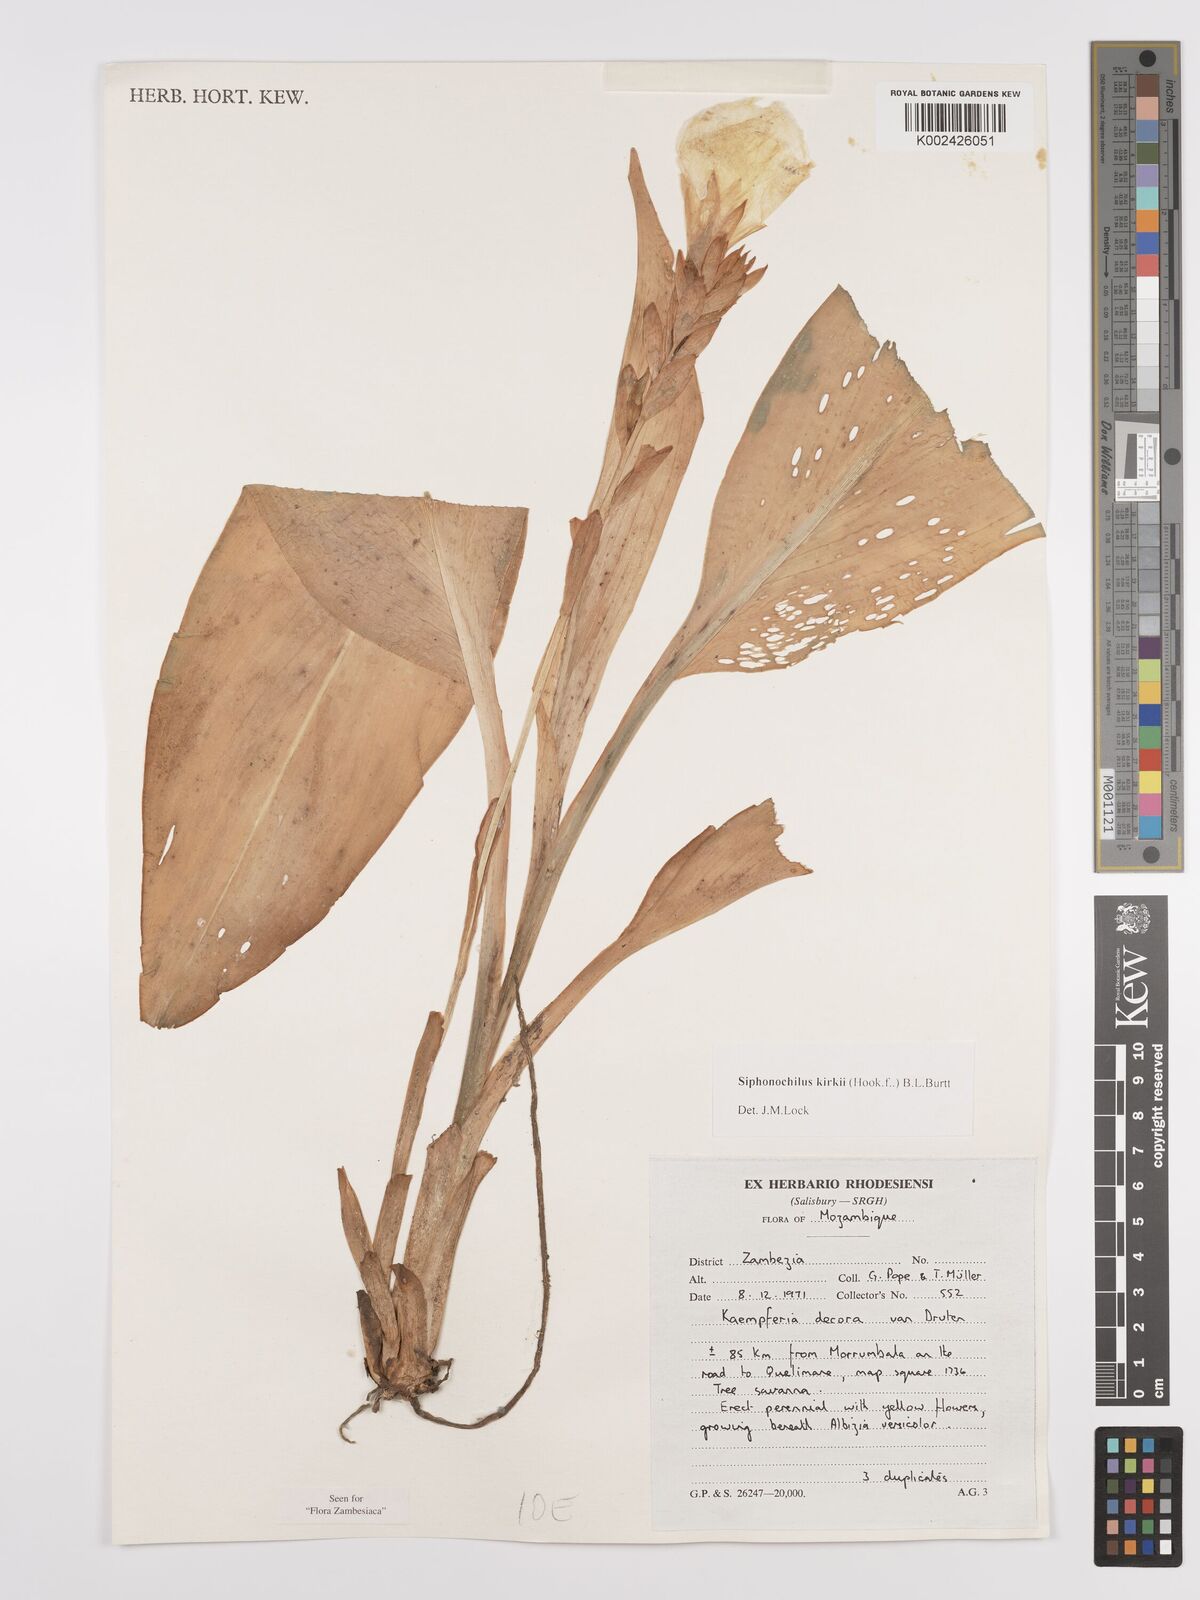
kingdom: Plantae
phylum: Tracheophyta
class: Liliopsida
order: Zingiberales
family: Zingiberaceae
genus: Siphonochilus
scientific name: Siphonochilus kirkii
